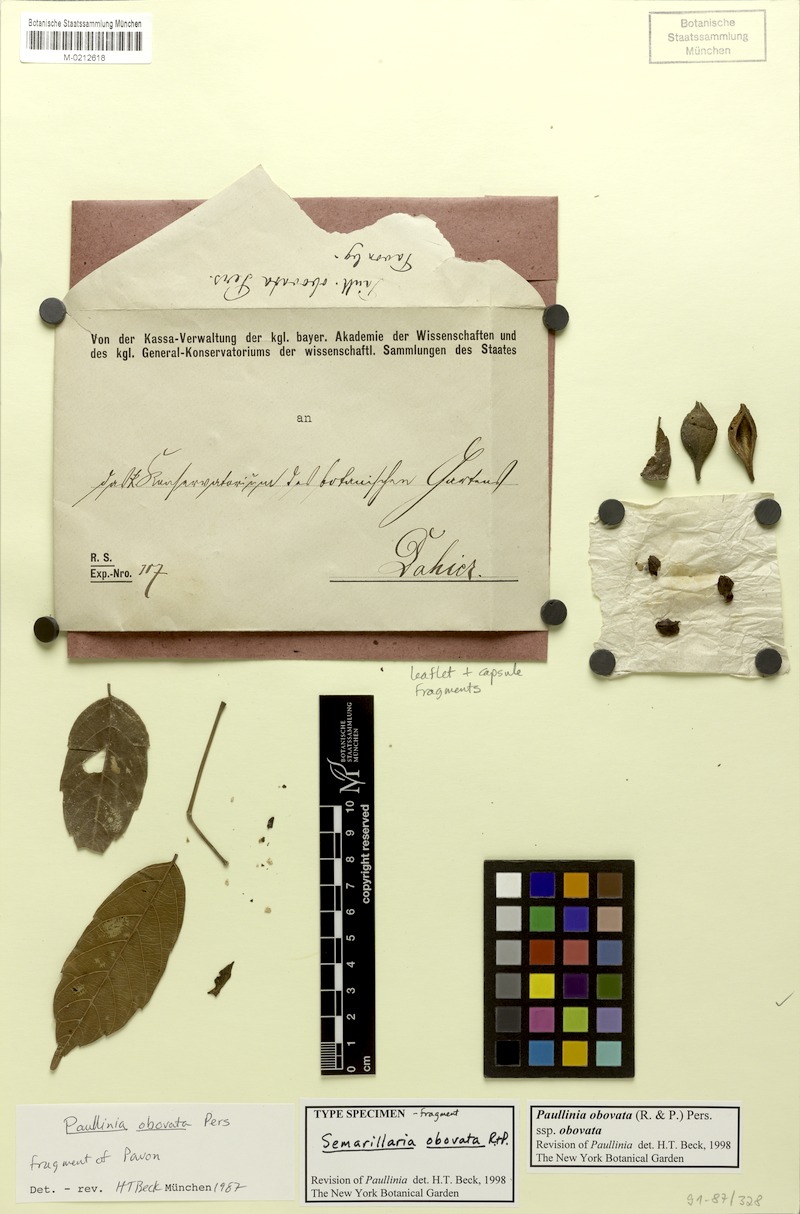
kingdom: Plantae
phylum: Tracheophyta
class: Magnoliopsida
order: Sapindales
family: Sapindaceae
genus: Paullinia
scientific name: Paullinia obovata
